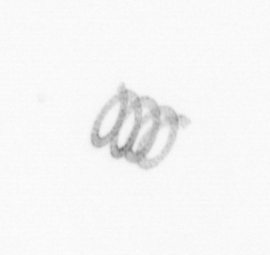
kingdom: Chromista
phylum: Ochrophyta
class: Bacillariophyceae
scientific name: Bacillariophyceae
